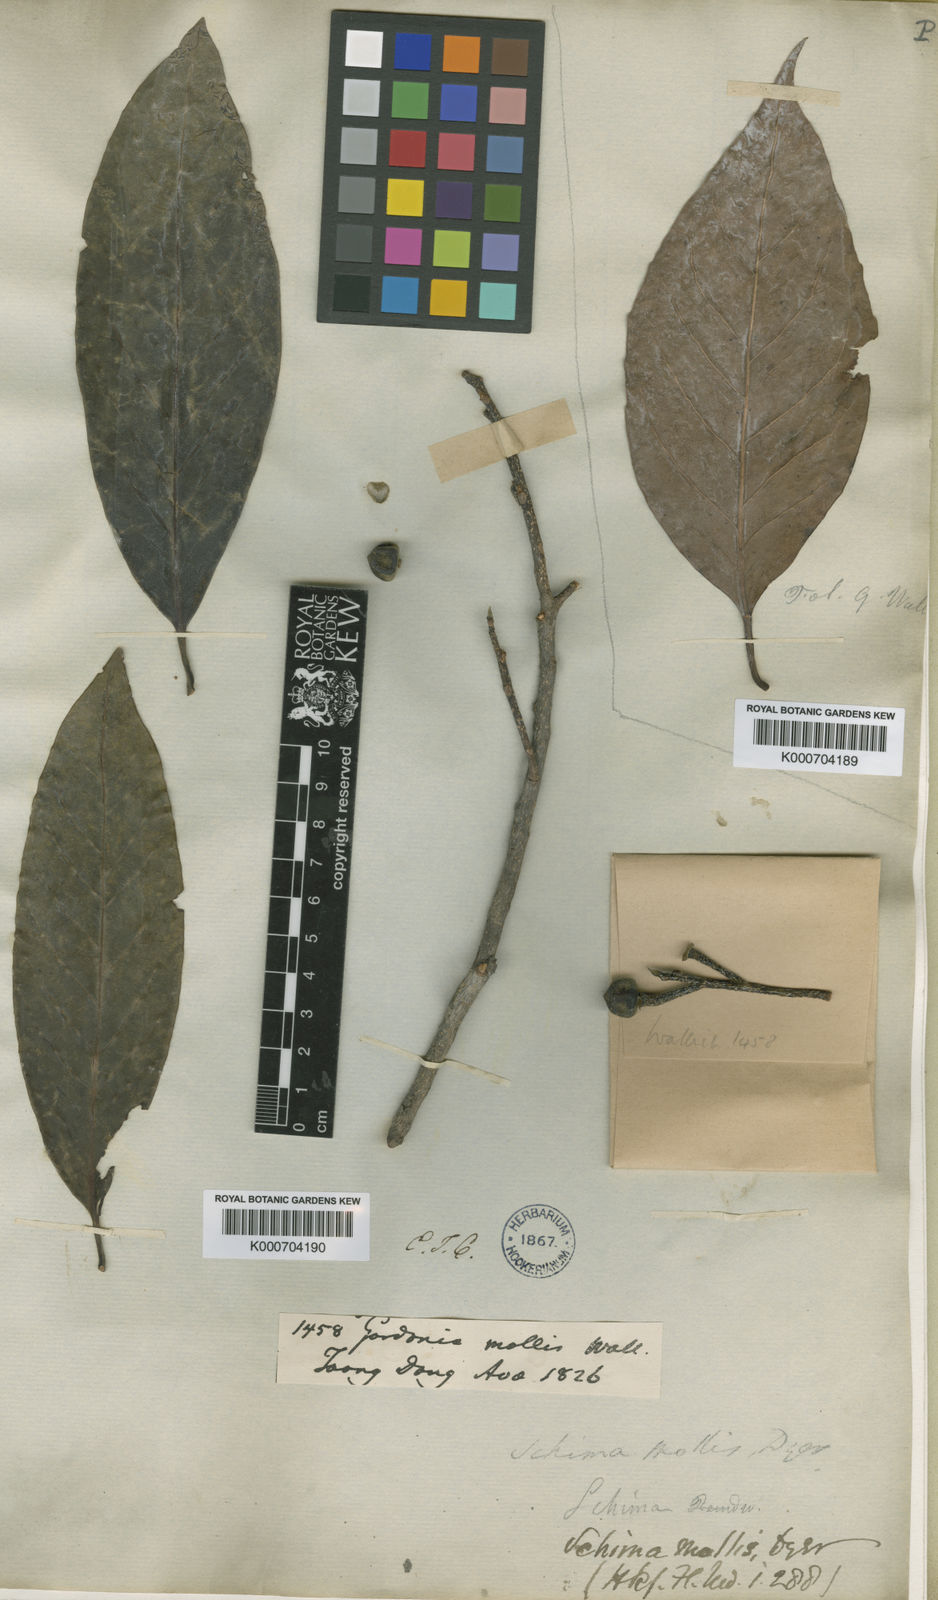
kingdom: Plantae
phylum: Tracheophyta
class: Magnoliopsida
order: Ericales
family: Theaceae
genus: Schima
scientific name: Schima
